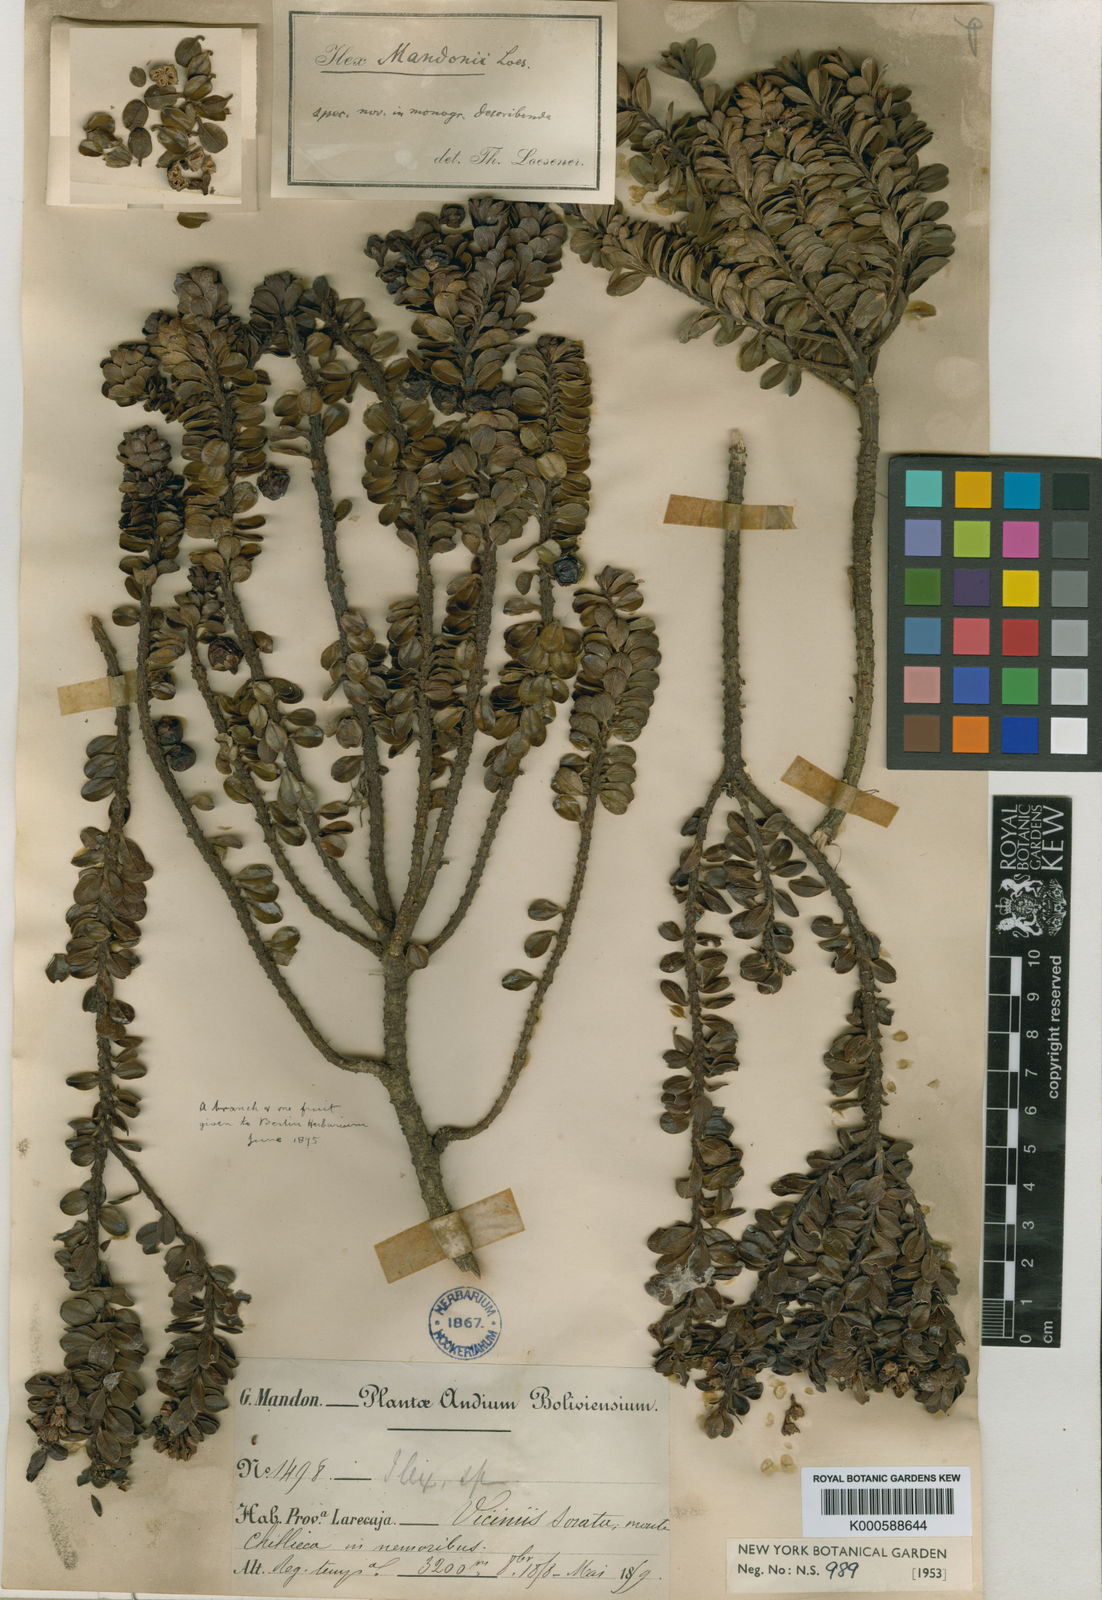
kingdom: Plantae
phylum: Tracheophyta
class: Magnoliopsida
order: Aquifoliales
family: Aquifoliaceae
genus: Ilex
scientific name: Ilex mandonii
